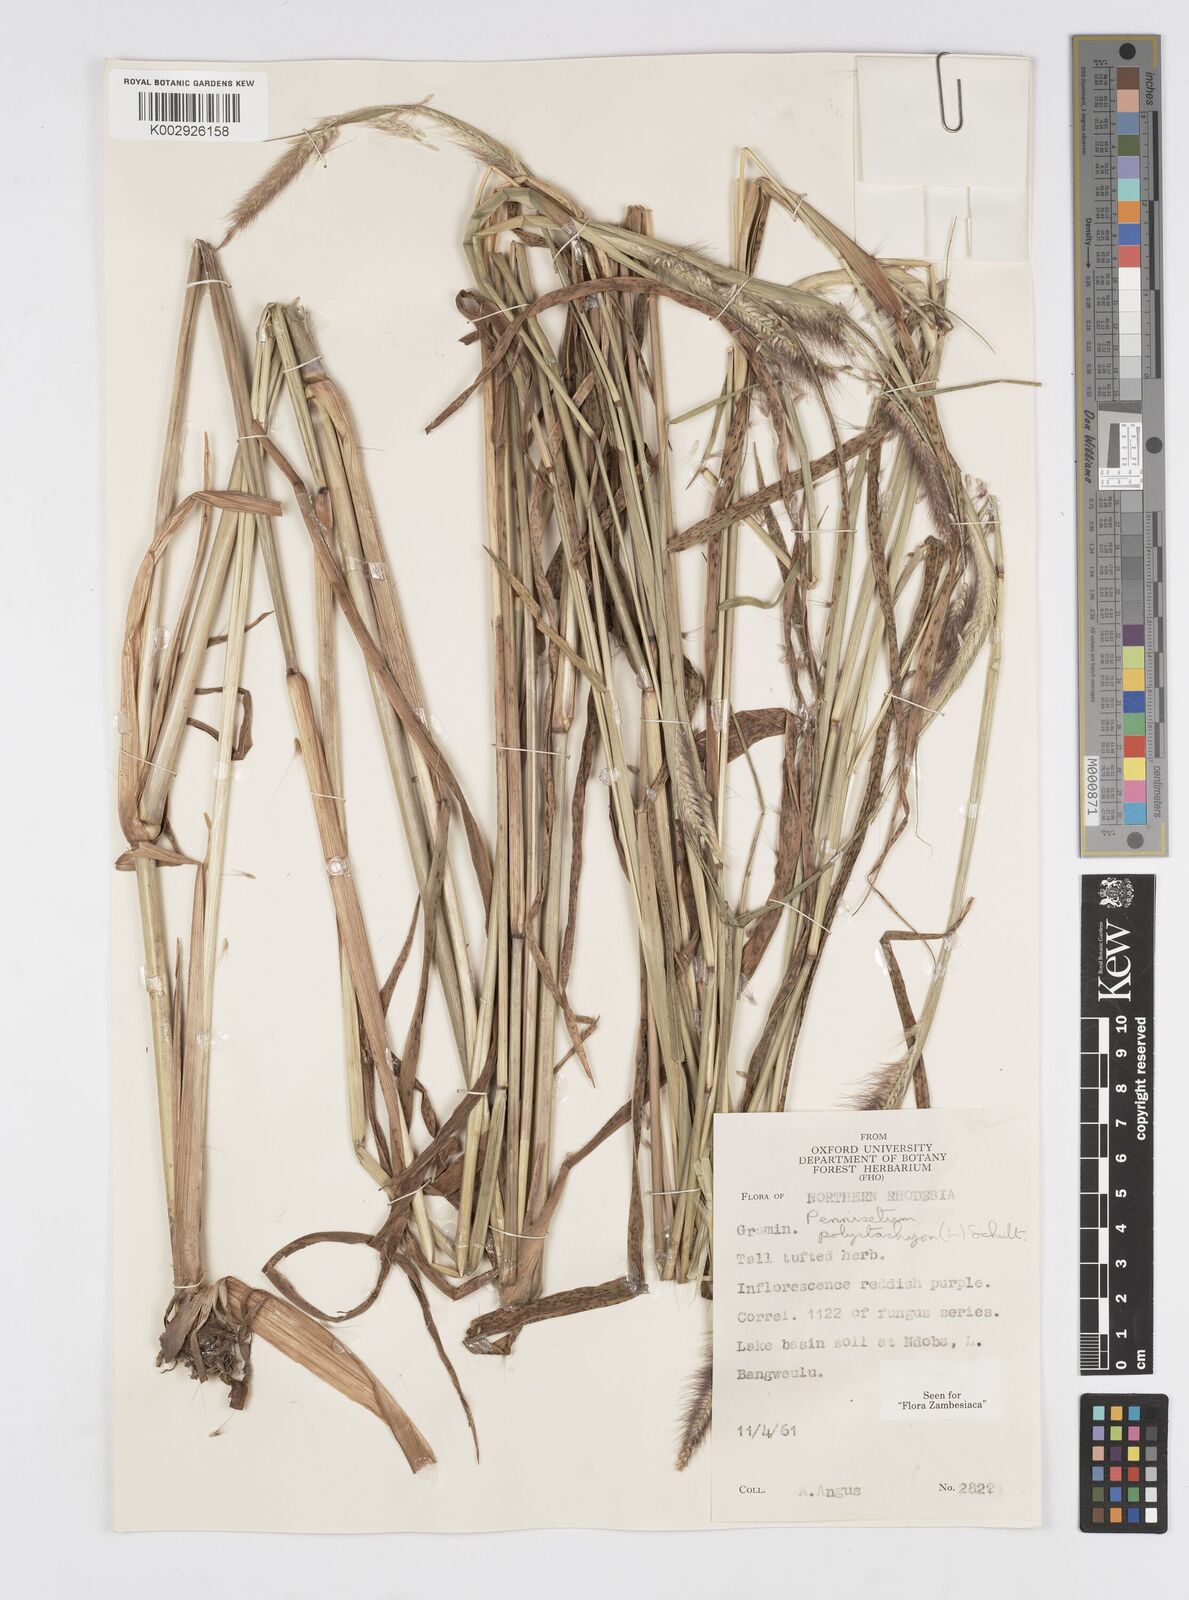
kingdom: Plantae
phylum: Tracheophyta
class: Liliopsida
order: Poales
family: Poaceae
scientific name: Poaceae
